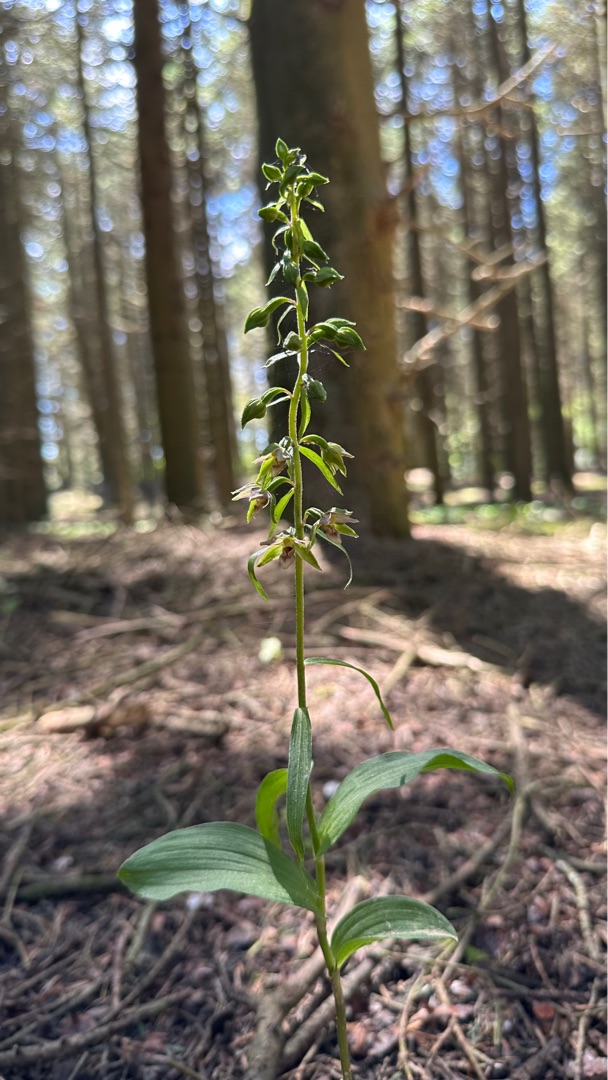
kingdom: Plantae
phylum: Tracheophyta
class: Liliopsida
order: Asparagales
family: Orchidaceae
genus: Epipactis
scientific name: Epipactis helleborine
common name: Skov-hullæbe
